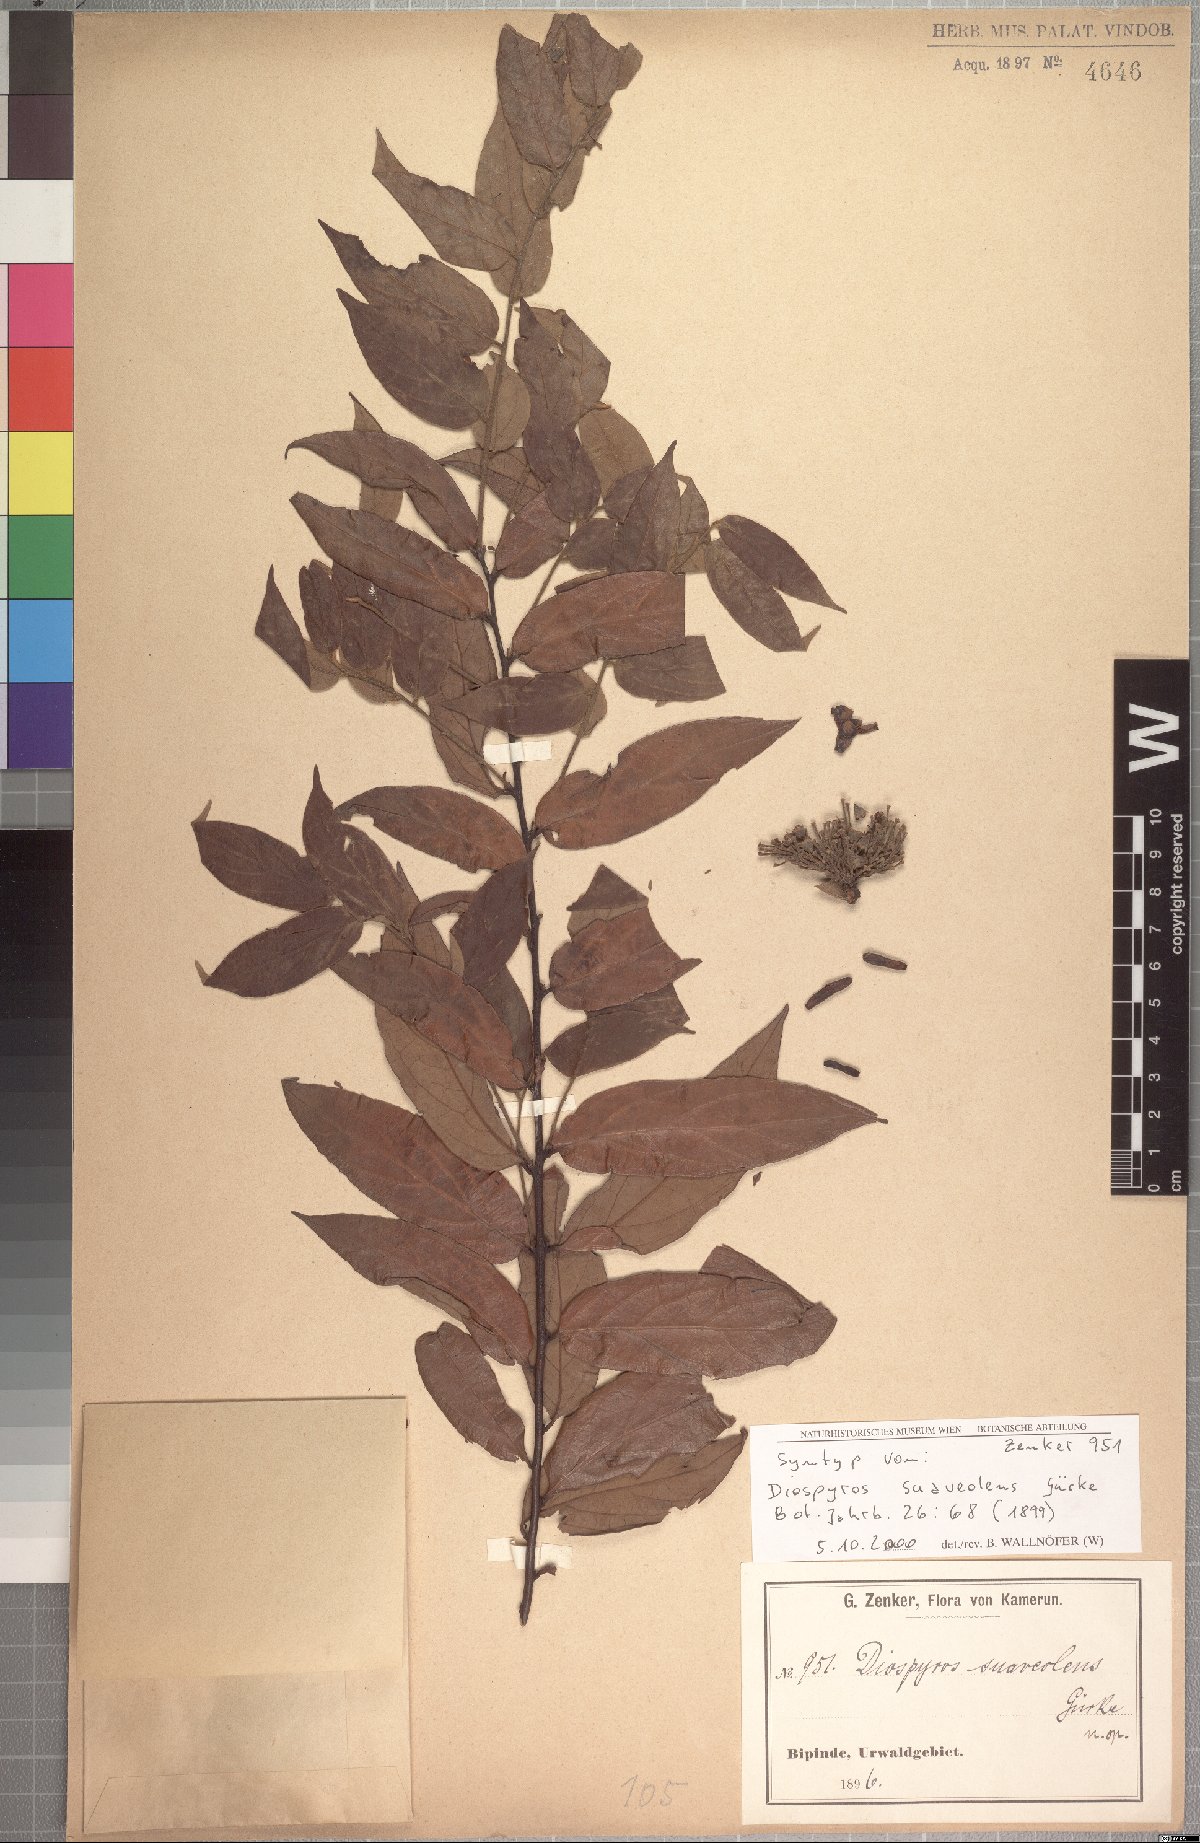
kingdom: Plantae
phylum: Tracheophyta
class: Magnoliopsida
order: Ericales
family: Ebenaceae
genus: Diospyros
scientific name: Diospyros suaveolens
